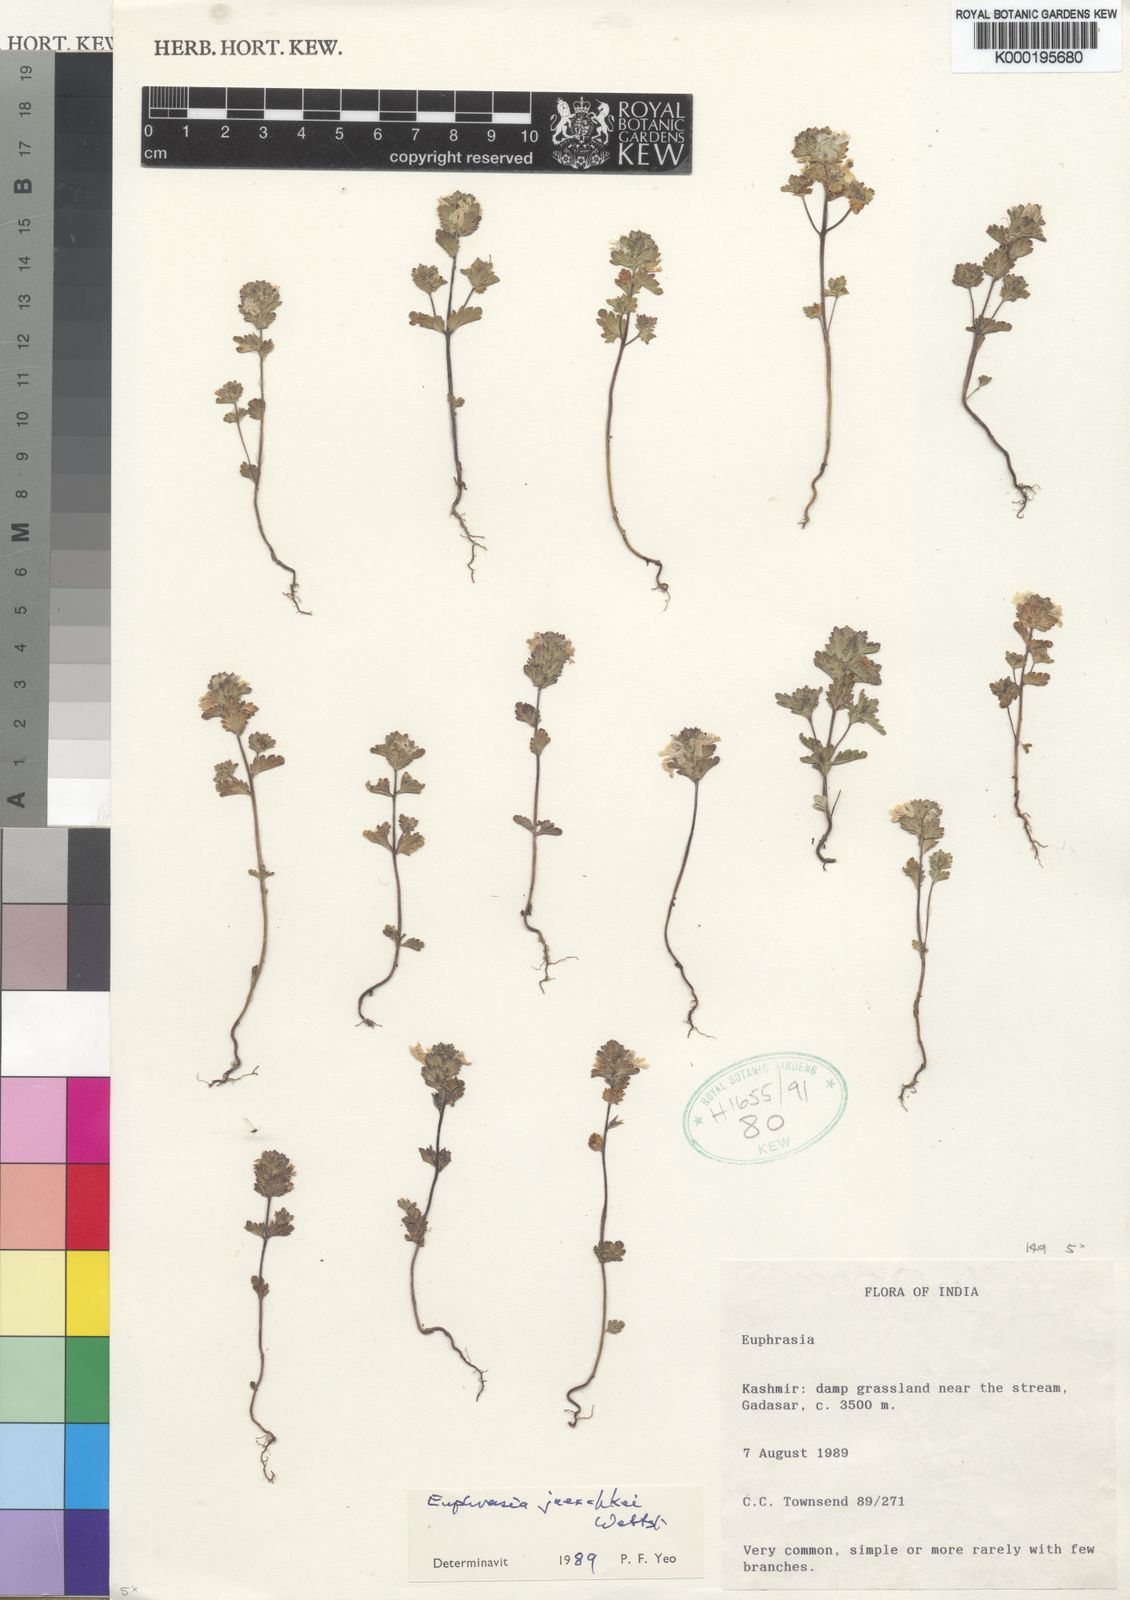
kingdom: Plantae
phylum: Tracheophyta
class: Magnoliopsida
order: Lamiales
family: Orobanchaceae
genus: Euphrasia
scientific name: Euphrasia jaeschkei
